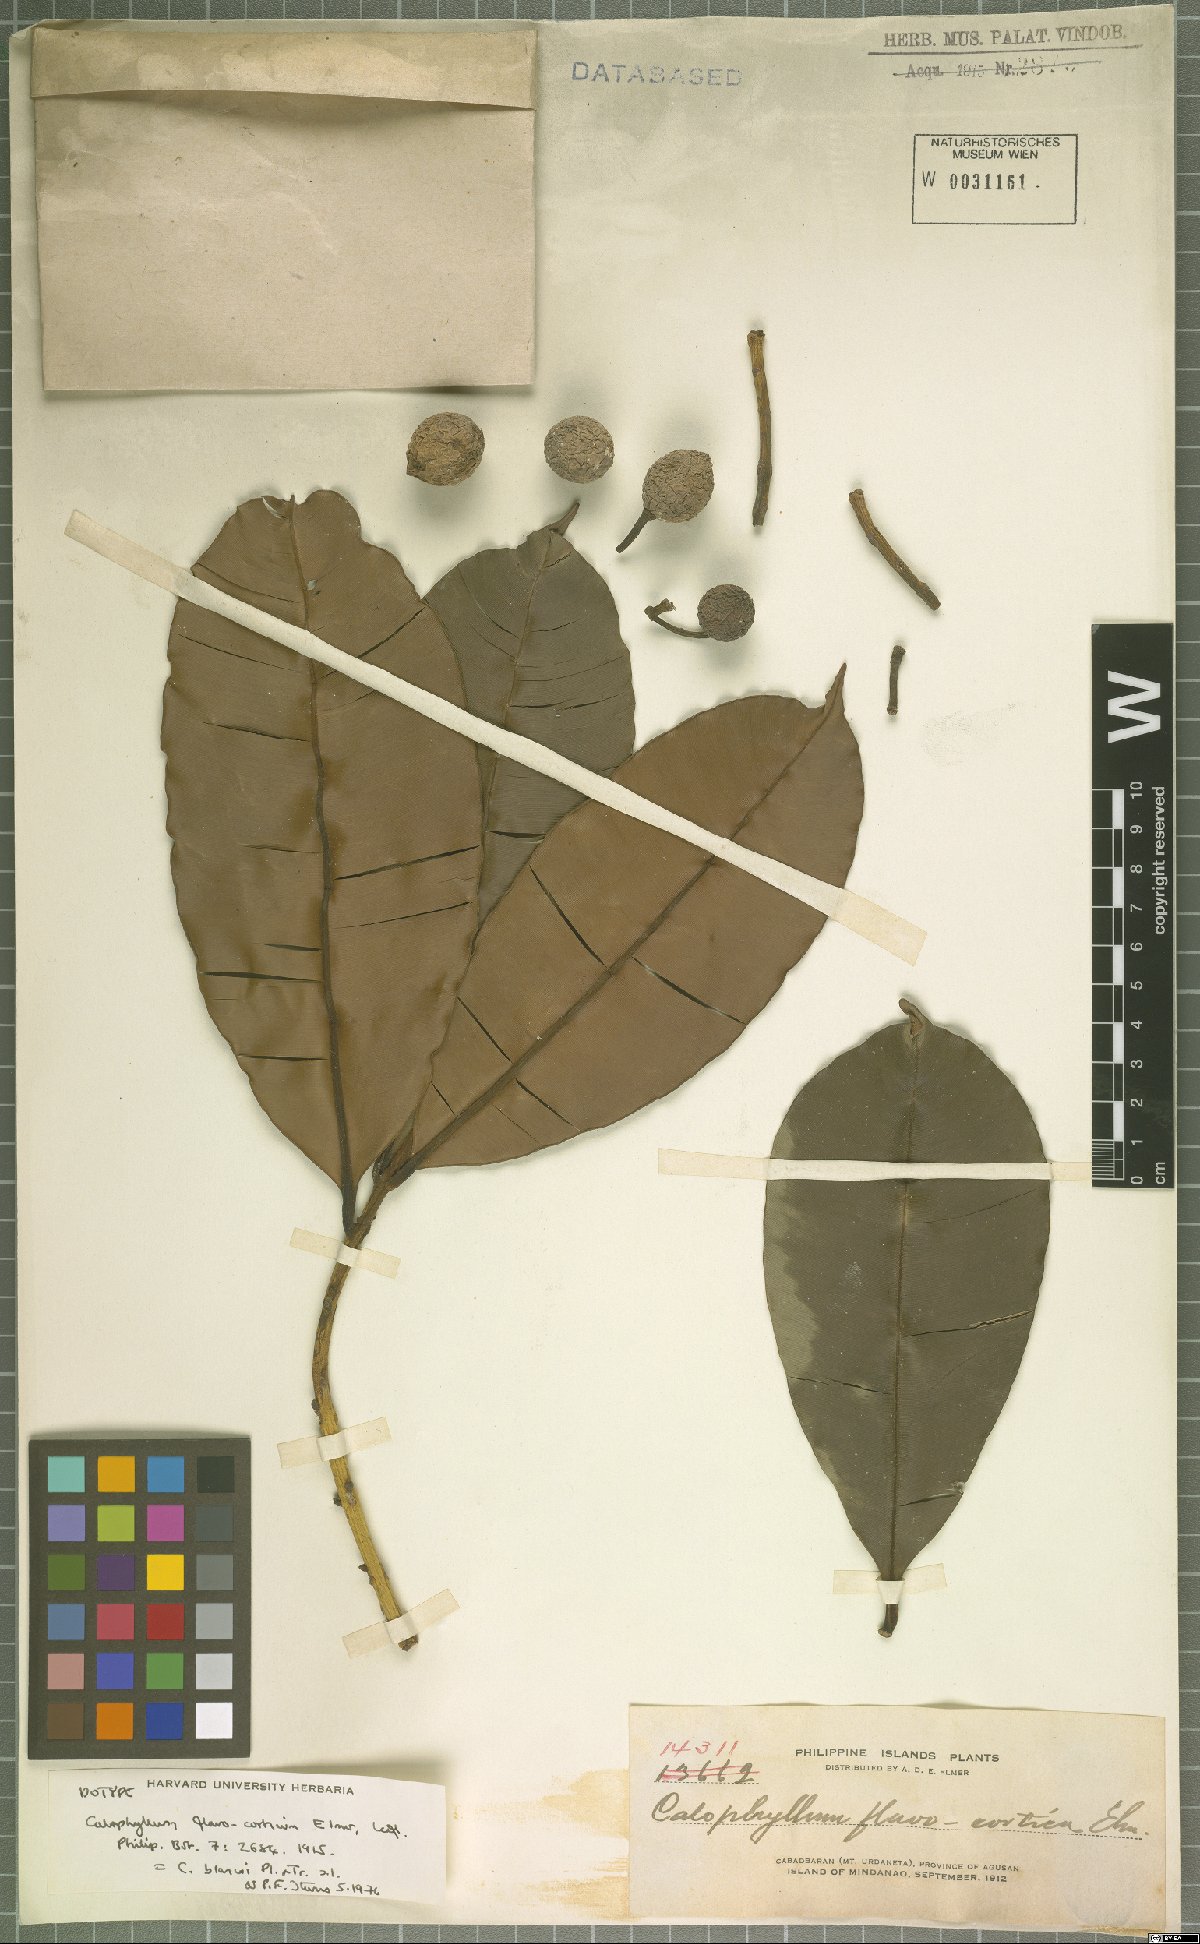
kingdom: Plantae
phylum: Tracheophyta
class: Magnoliopsida
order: Malpighiales
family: Calophyllaceae
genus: Calophyllum
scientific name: Calophyllum blancoi
